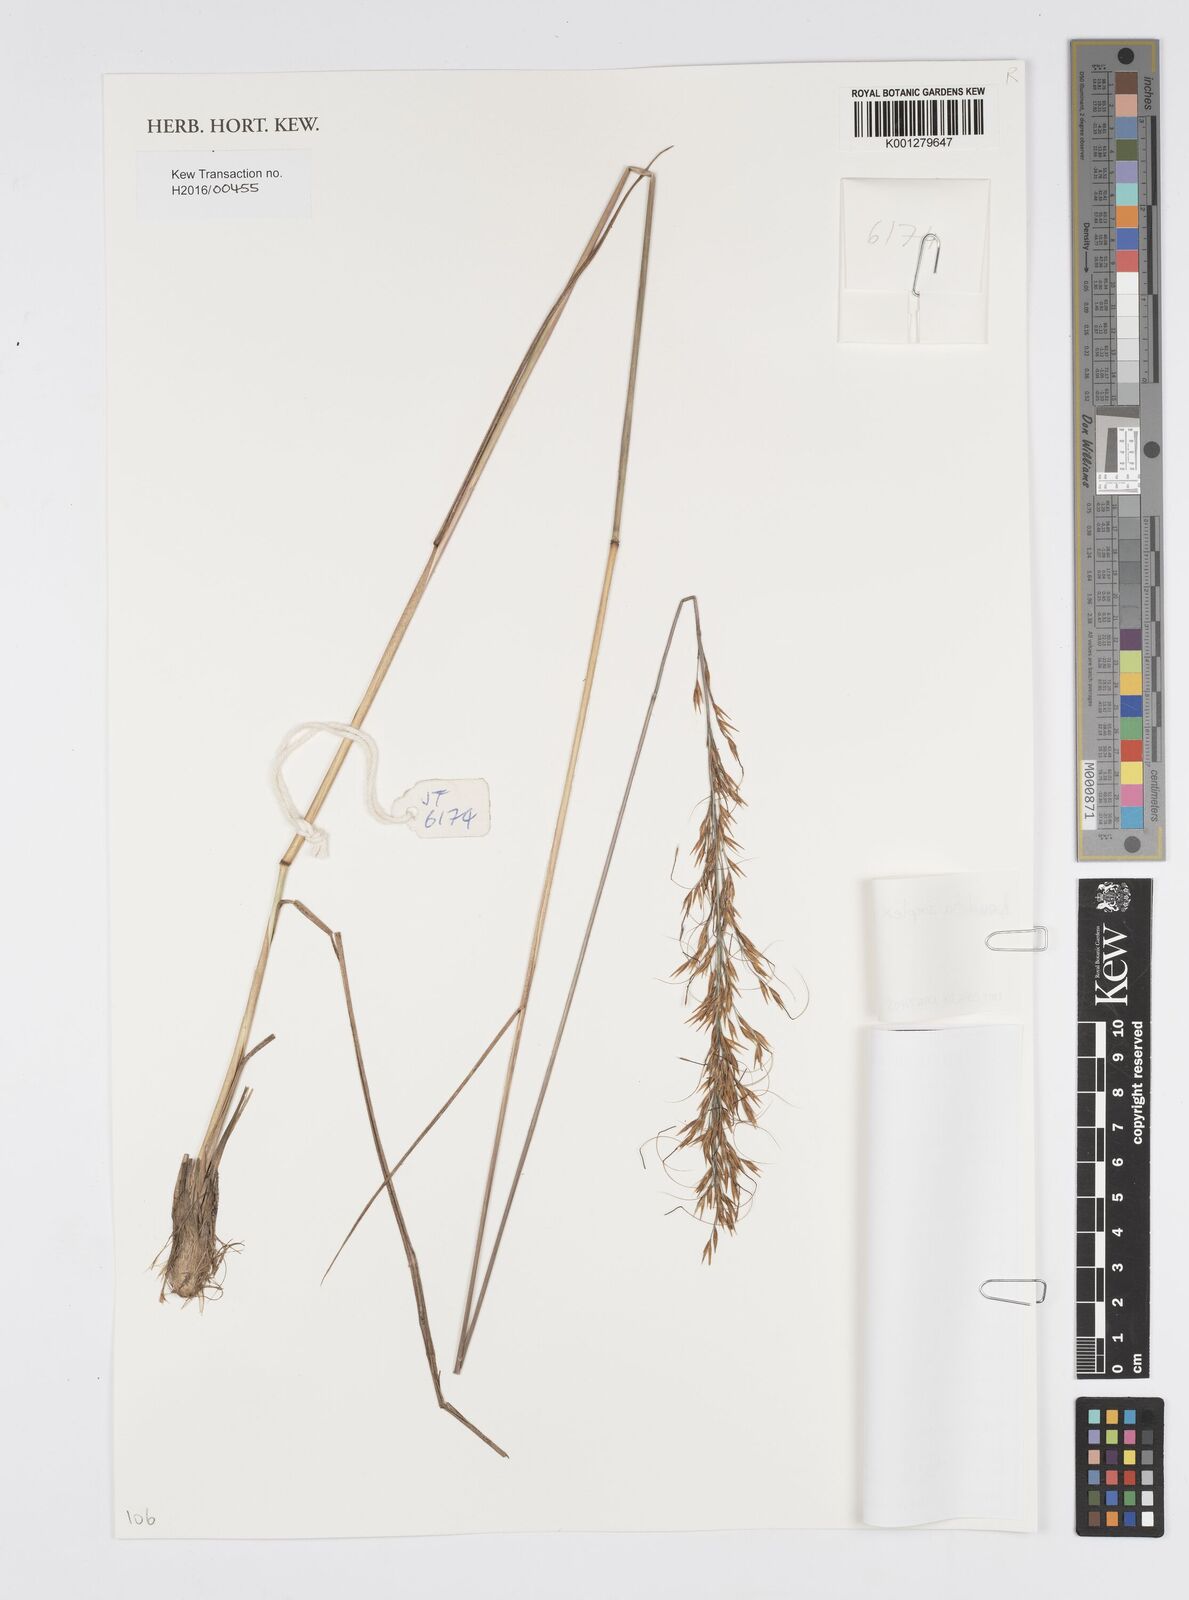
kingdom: Plantae
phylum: Tracheophyta
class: Liliopsida
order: Poales
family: Poaceae
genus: Loudetia
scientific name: Loudetia simplex
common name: Common russet grass
